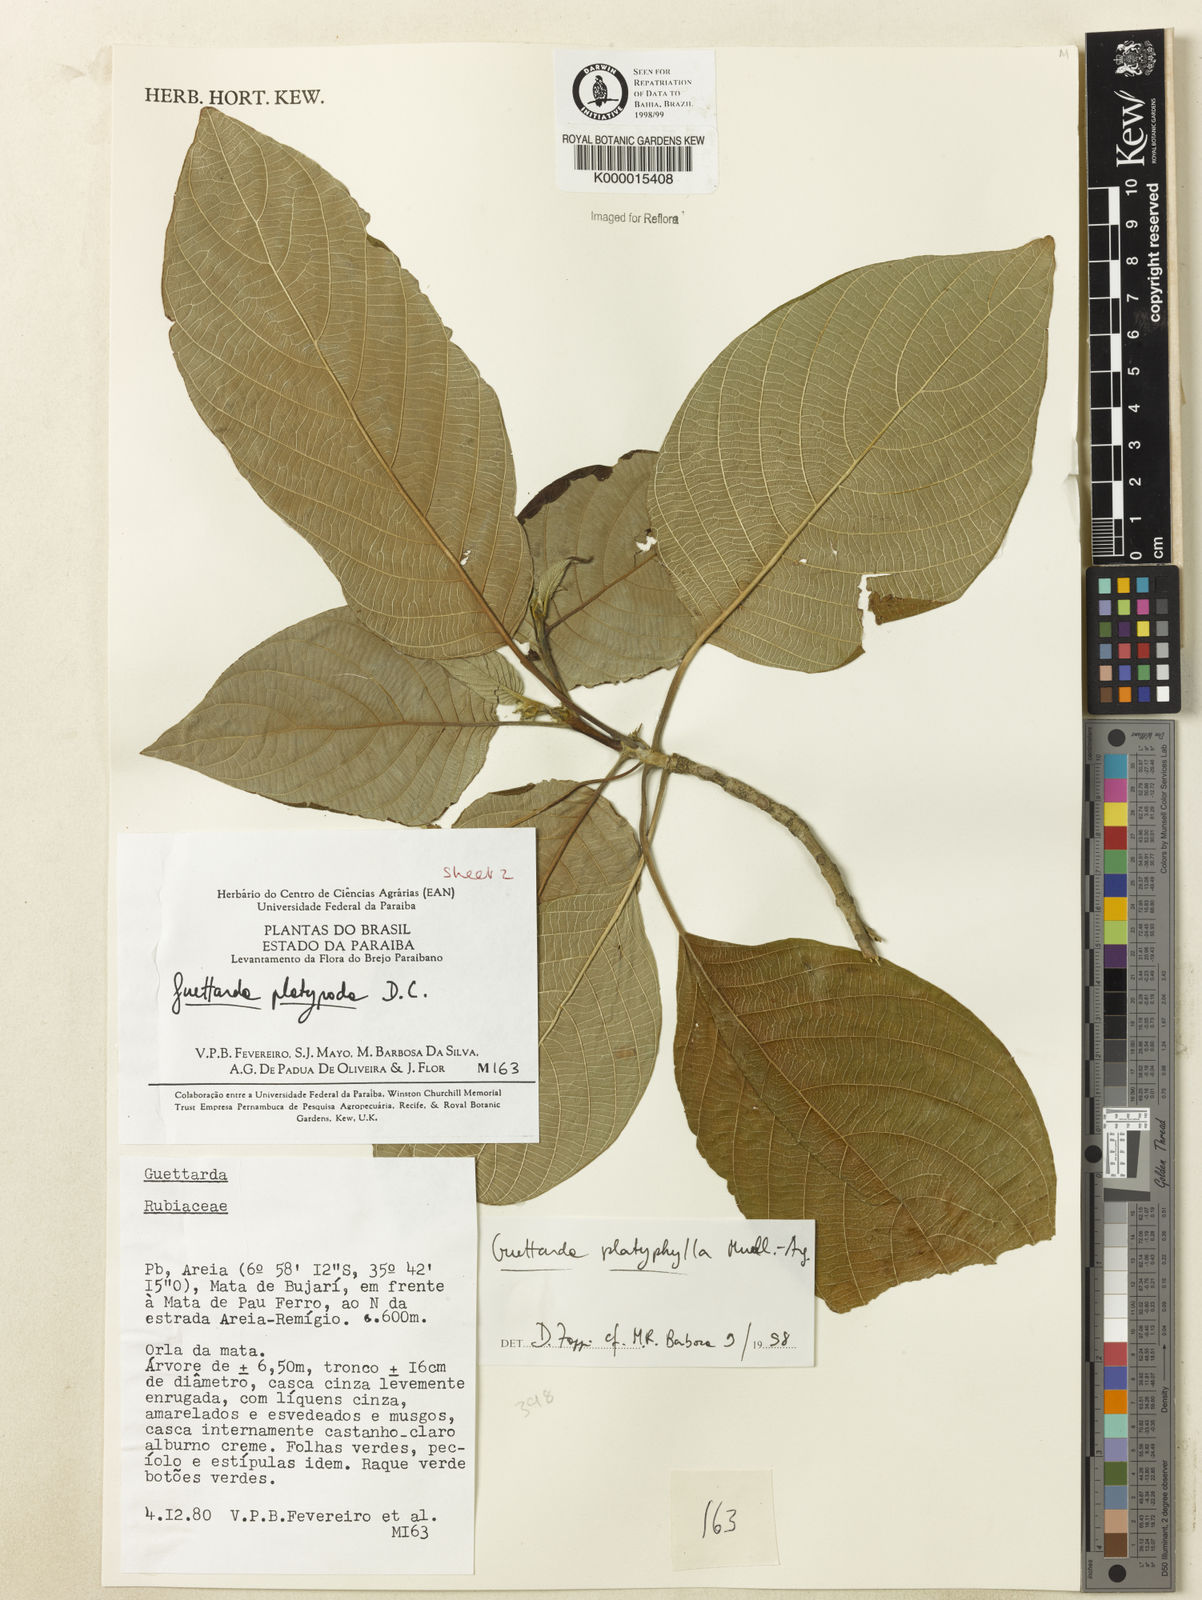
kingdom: Plantae
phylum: Tracheophyta
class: Magnoliopsida
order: Gentianales
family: Rubiaceae
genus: Guettarda
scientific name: Guettarda viburnoides
